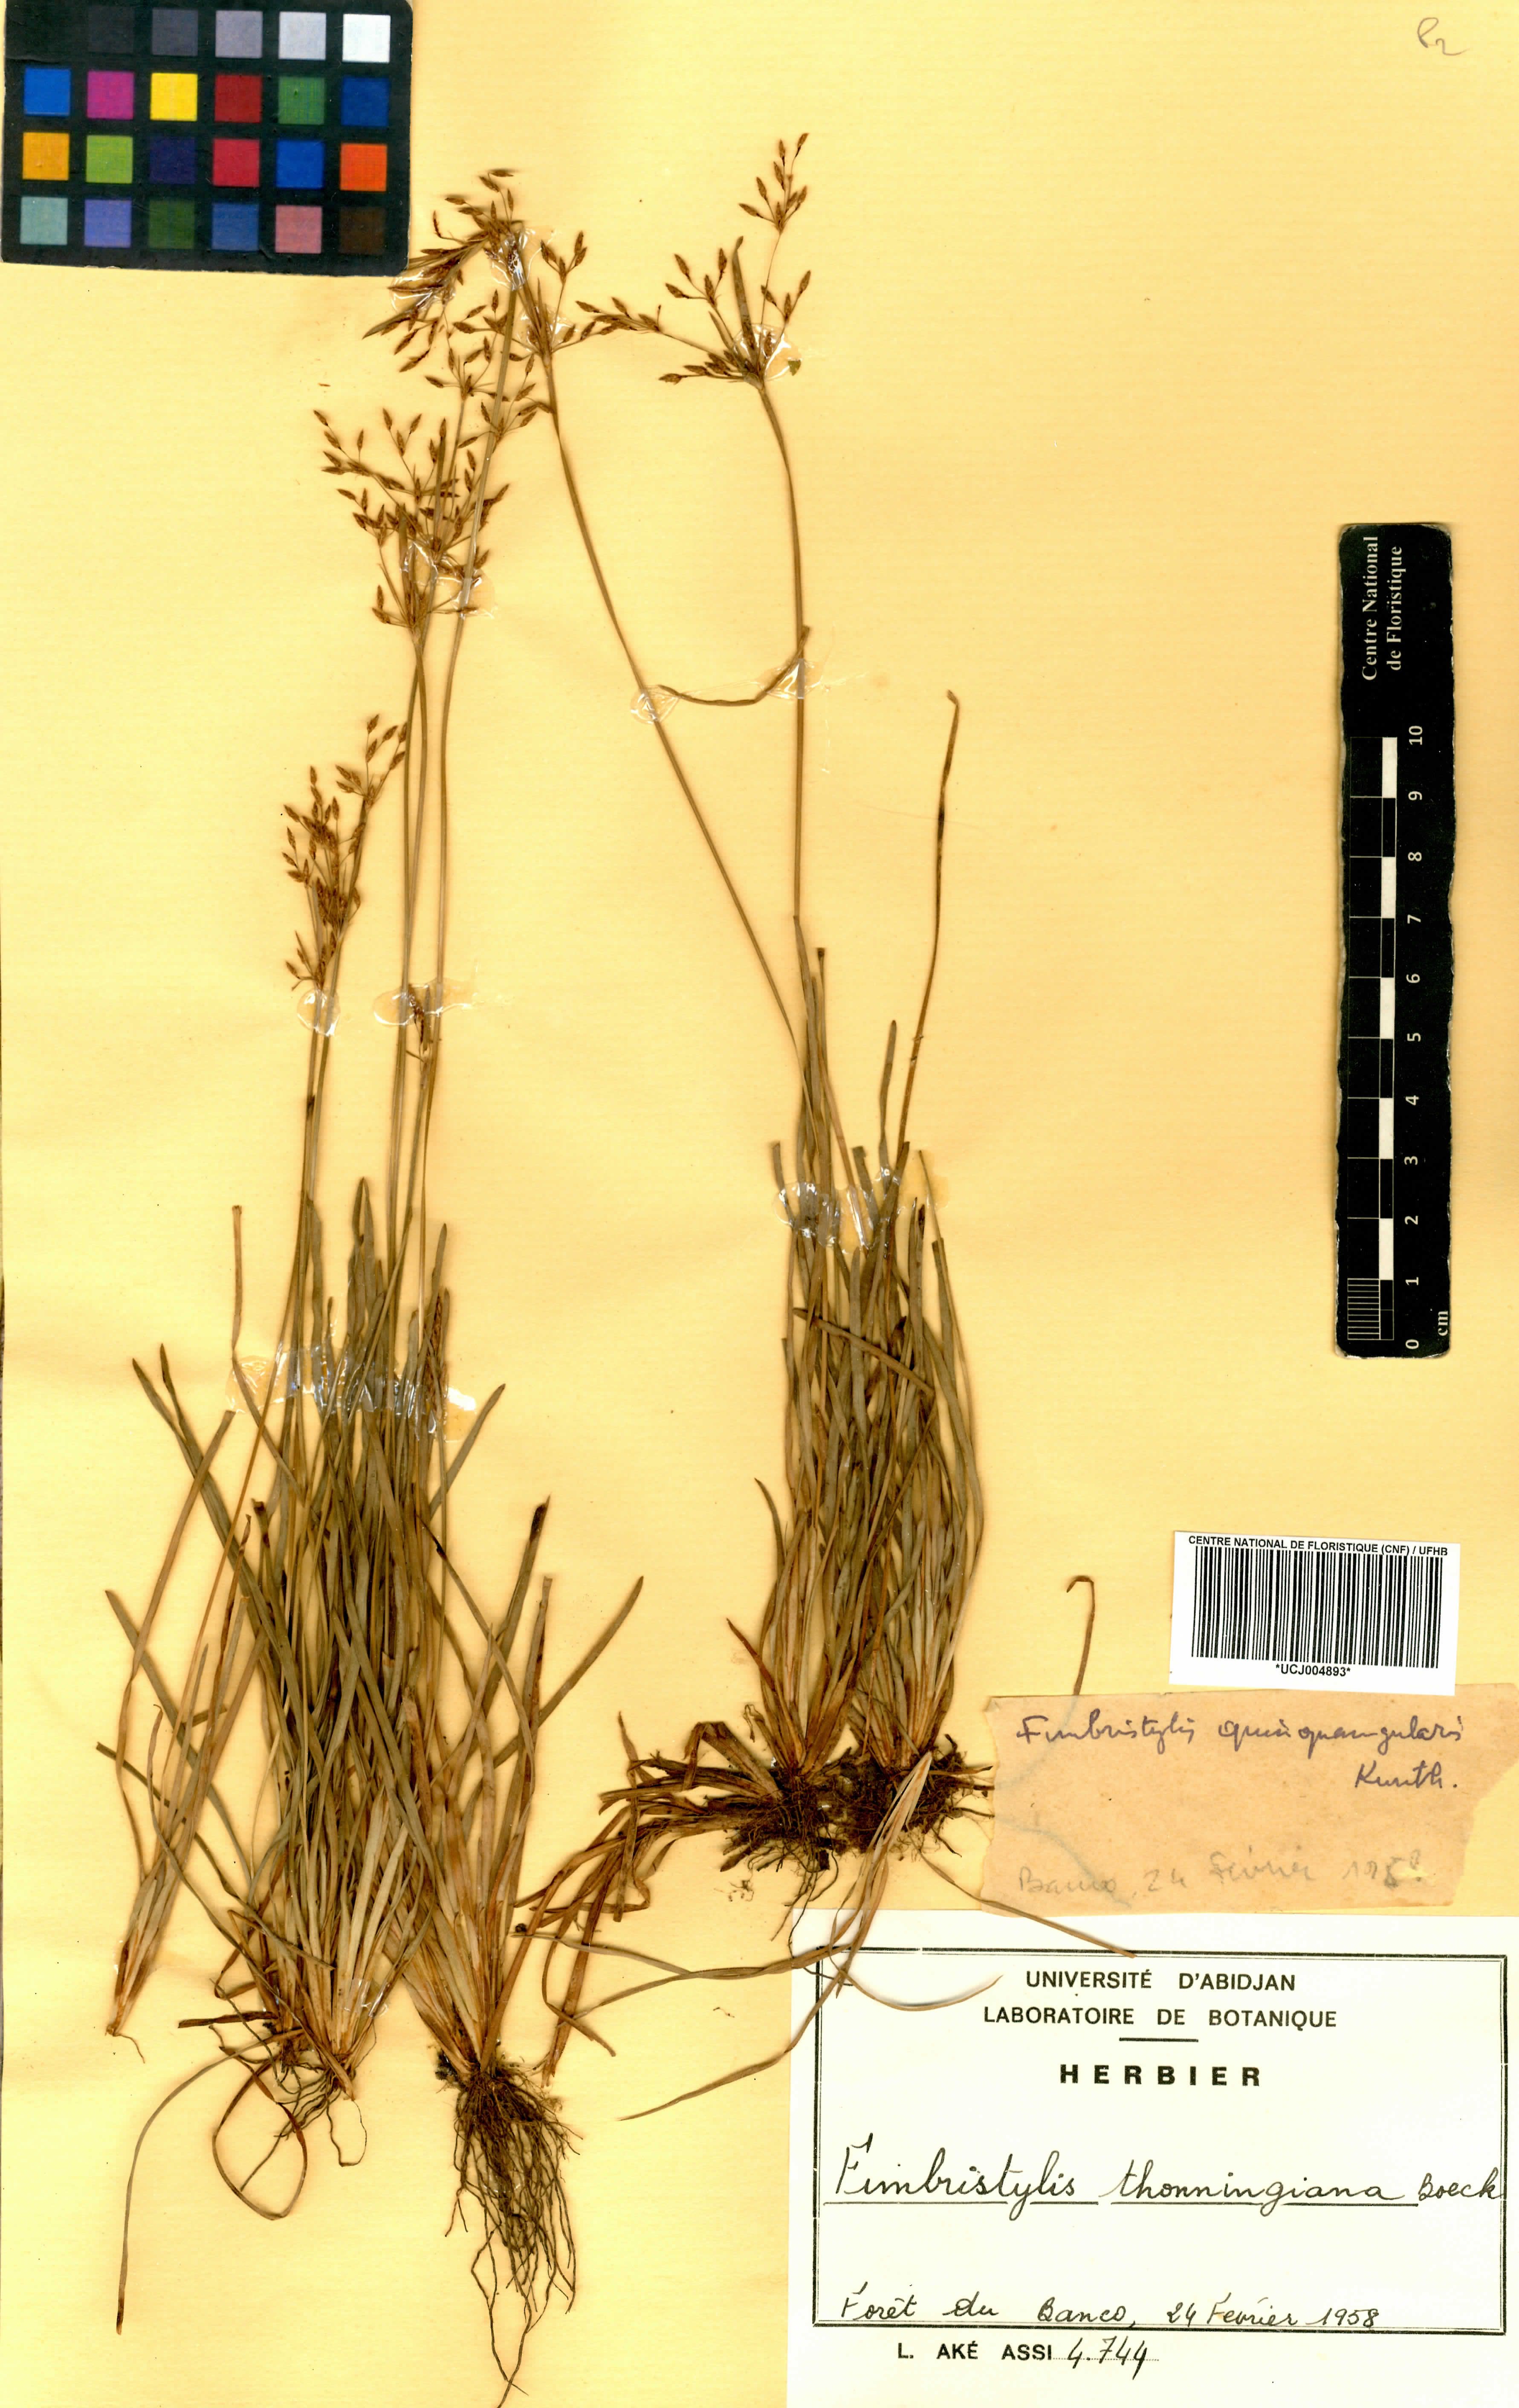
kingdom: Plantae
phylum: Tracheophyta
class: Liliopsida
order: Poales
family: Cyperaceae
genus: Fimbristylis
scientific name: Fimbristylis microcarya
